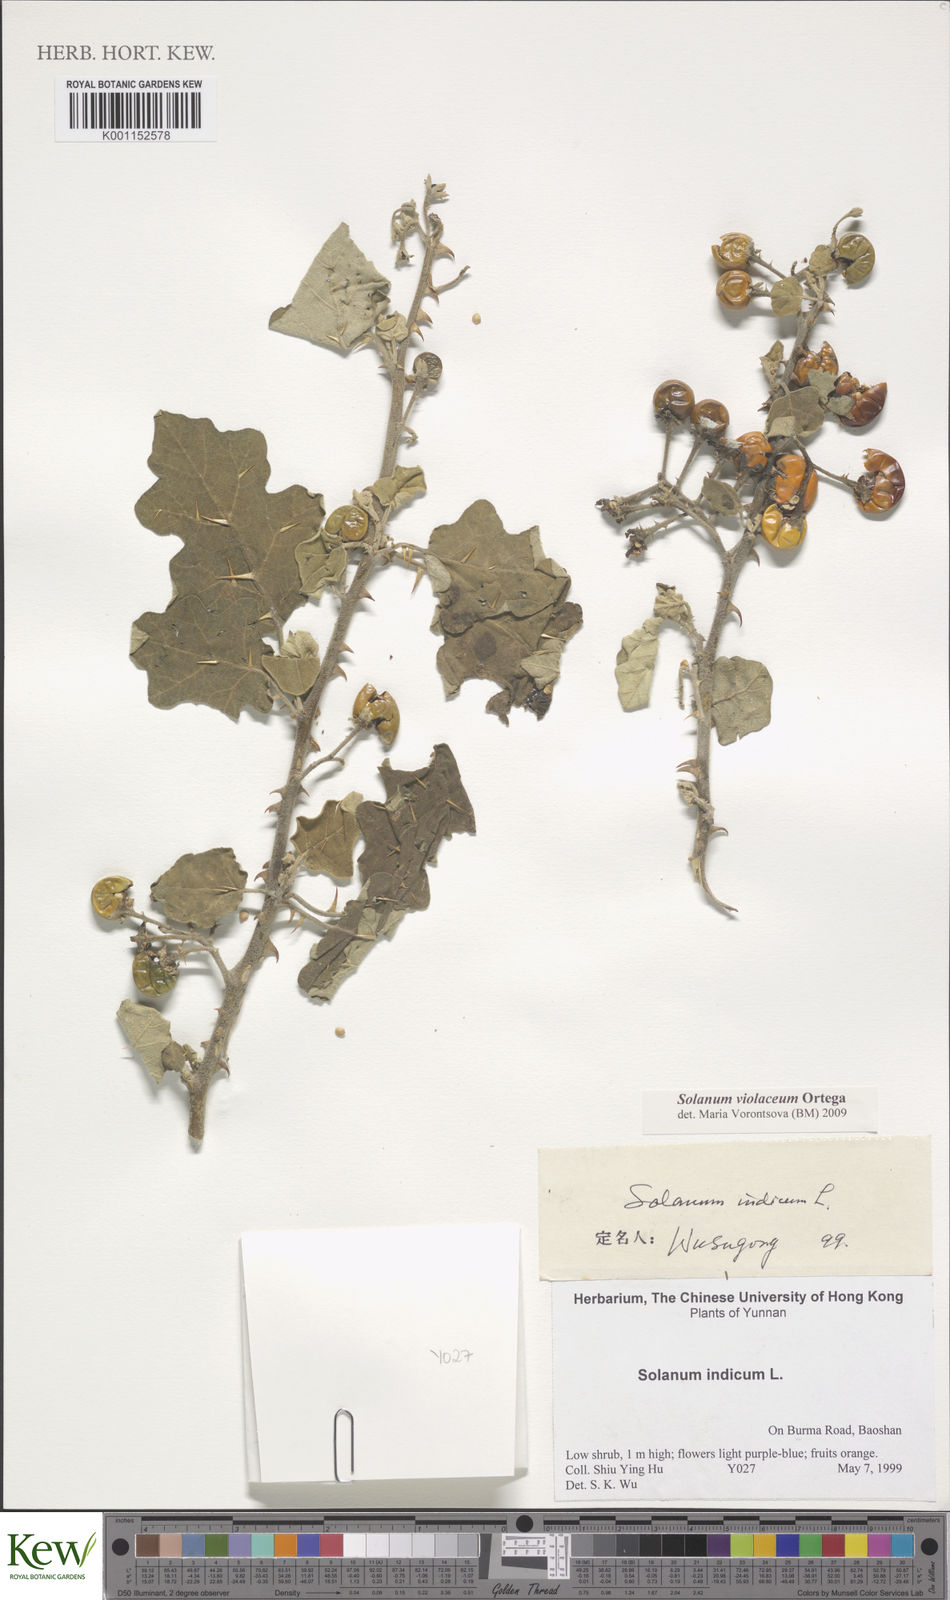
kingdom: Plantae
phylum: Tracheophyta
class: Magnoliopsida
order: Solanales
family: Solanaceae
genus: Solanum
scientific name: Solanum violaceum
